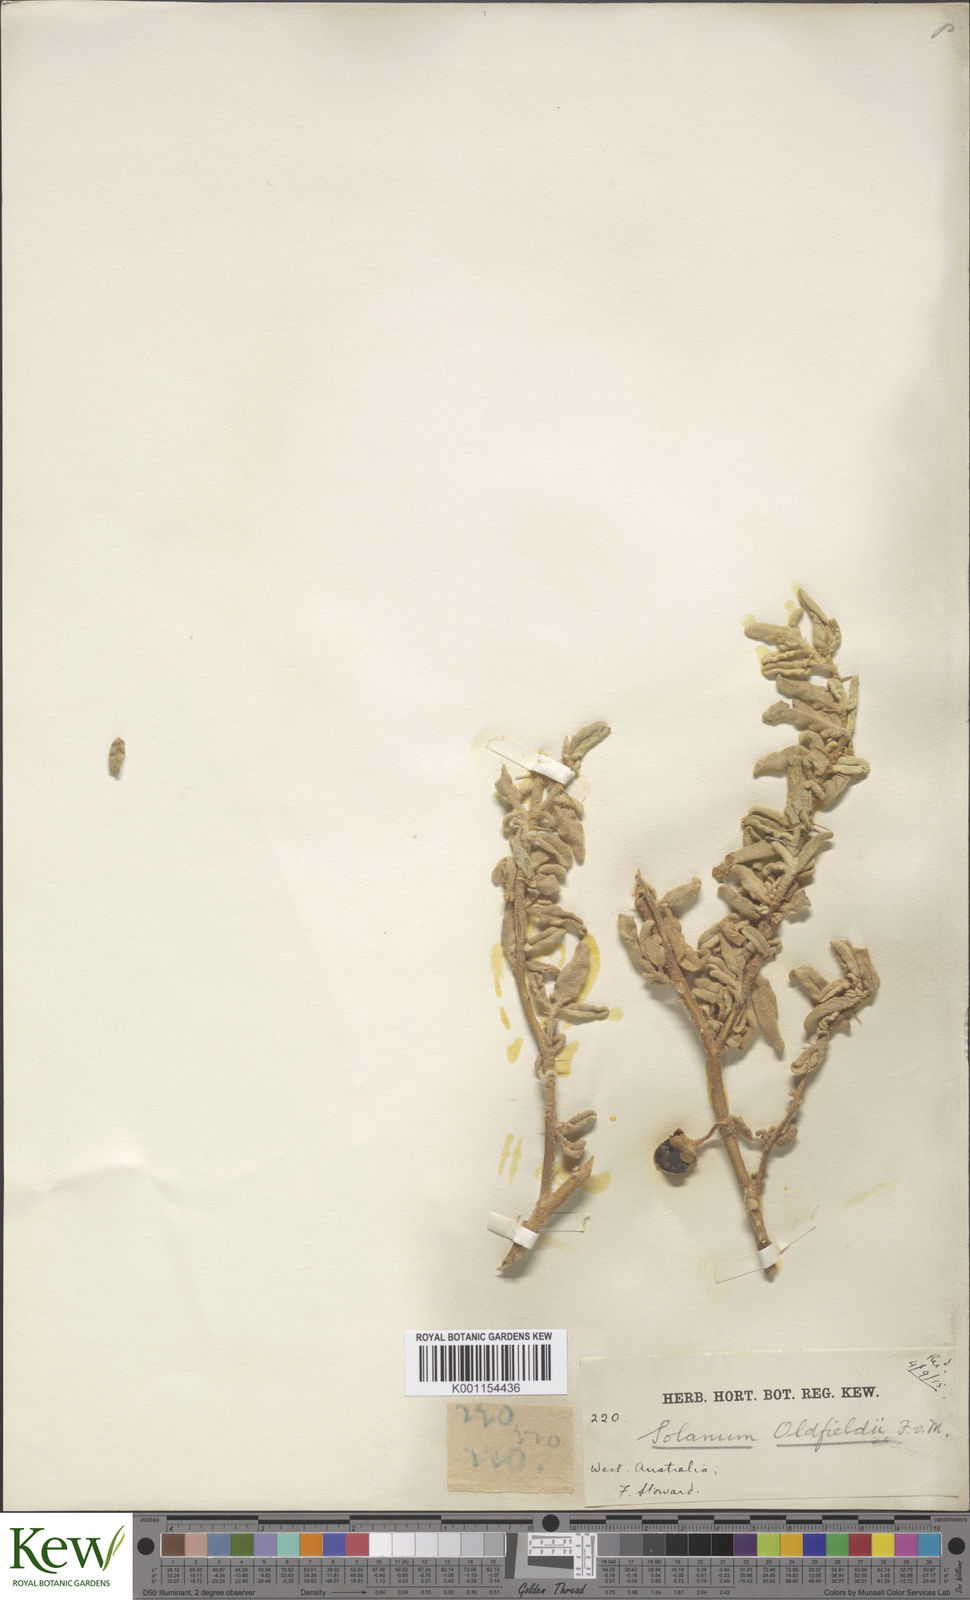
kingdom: Plantae
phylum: Tracheophyta
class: Magnoliopsida
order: Solanales
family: Solanaceae
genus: Solanum
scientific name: Solanum oldfieldii
